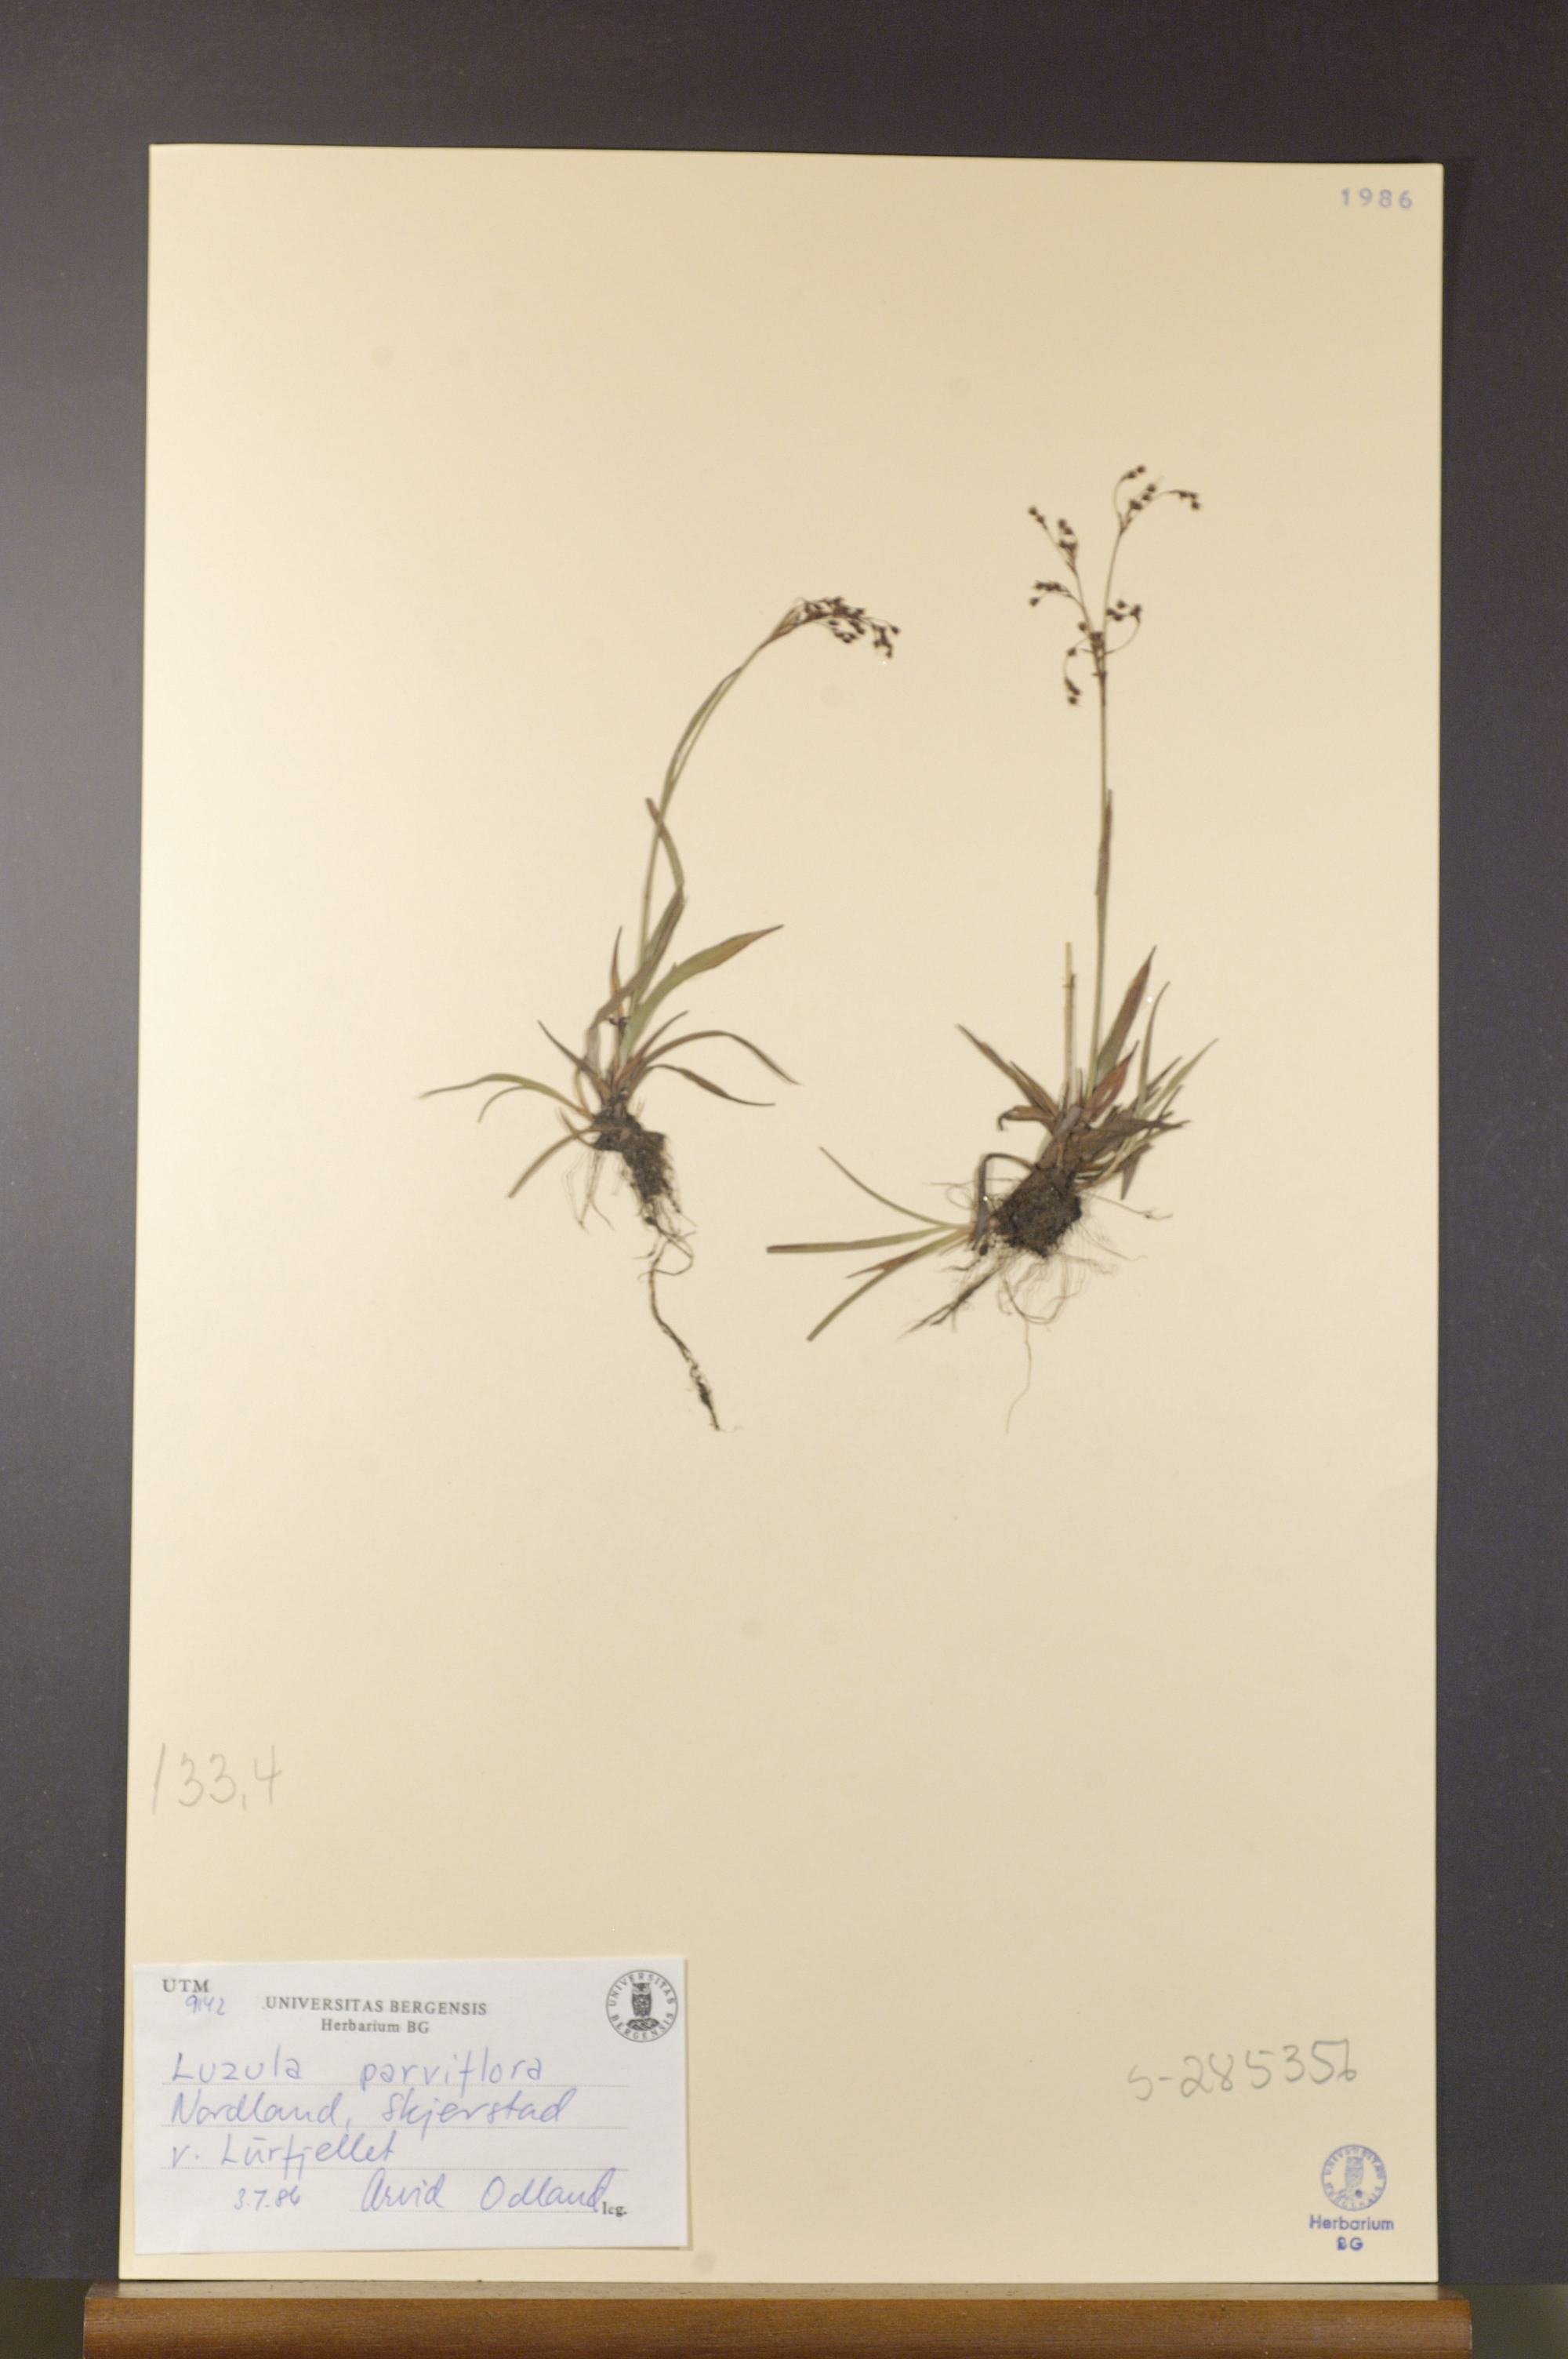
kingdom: Plantae
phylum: Tracheophyta
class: Liliopsida
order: Poales
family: Juncaceae
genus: Luzula
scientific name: Luzula parviflora
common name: Millet woodrush
